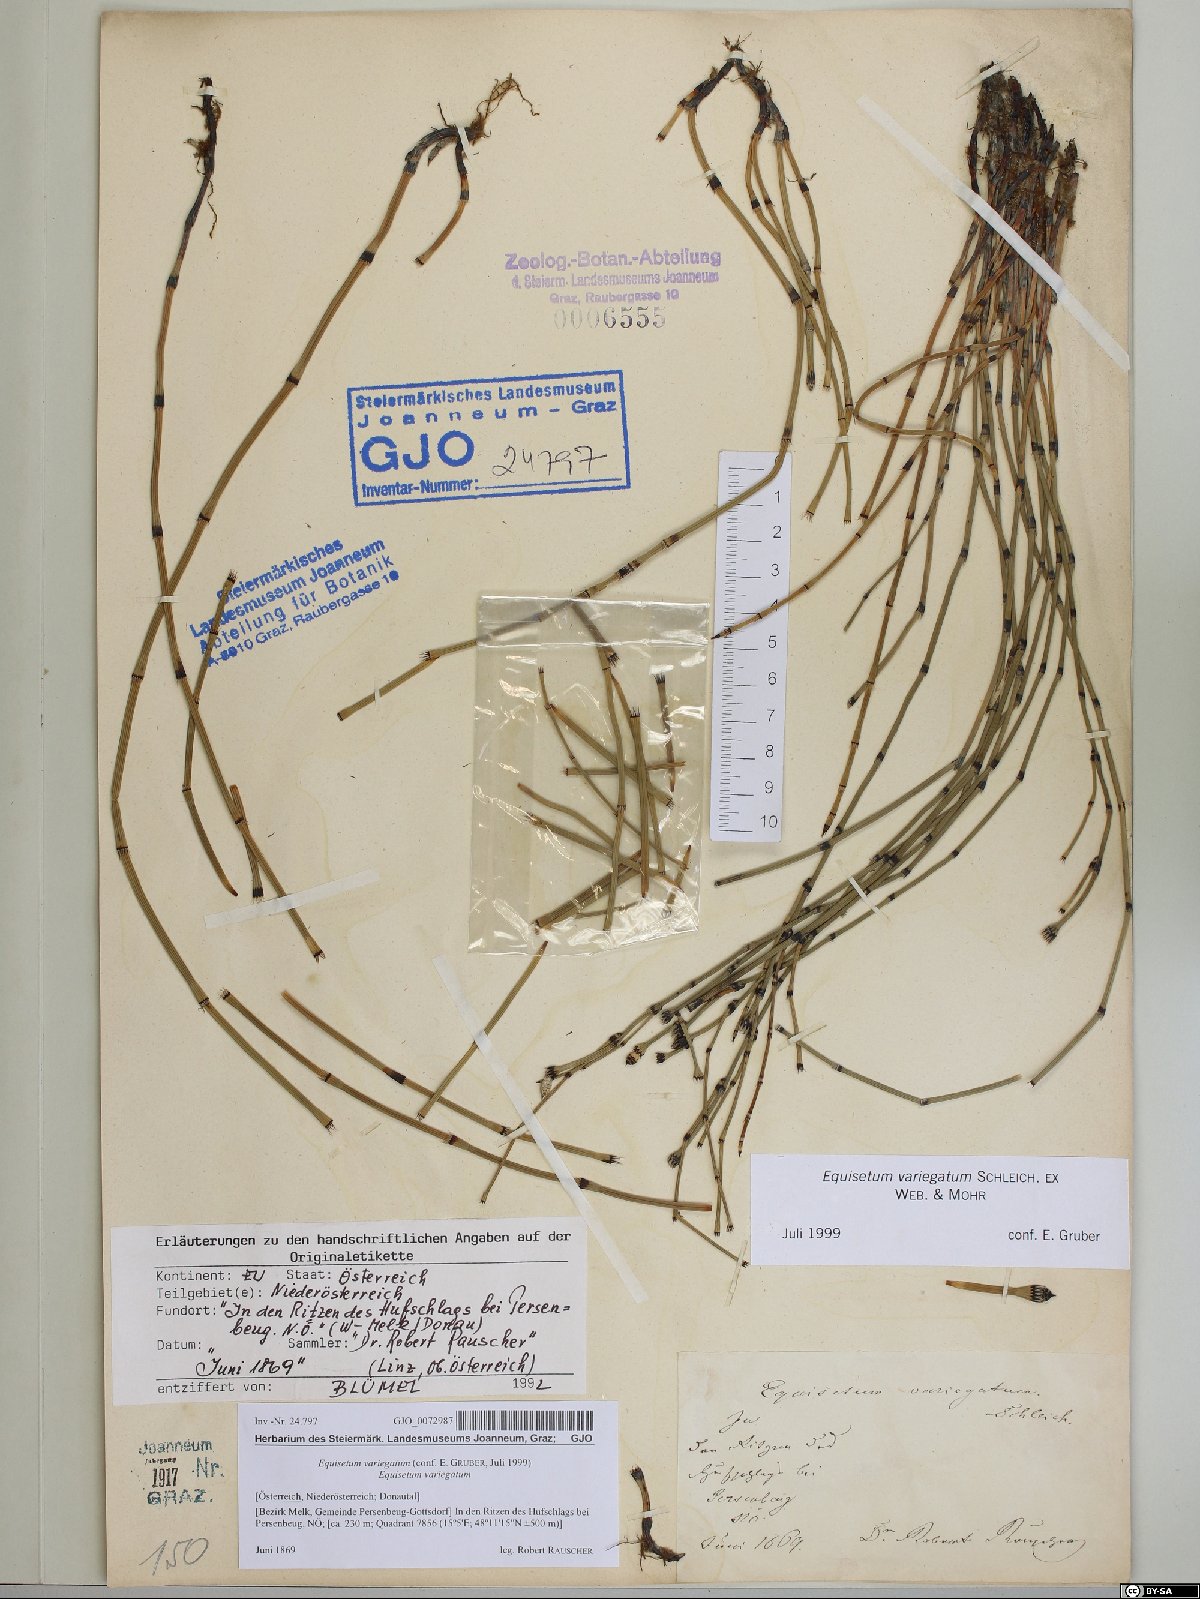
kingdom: Plantae
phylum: Tracheophyta
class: Polypodiopsida
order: Equisetales
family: Equisetaceae
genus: Equisetum
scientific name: Equisetum variegatum
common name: Variegated horsetail
